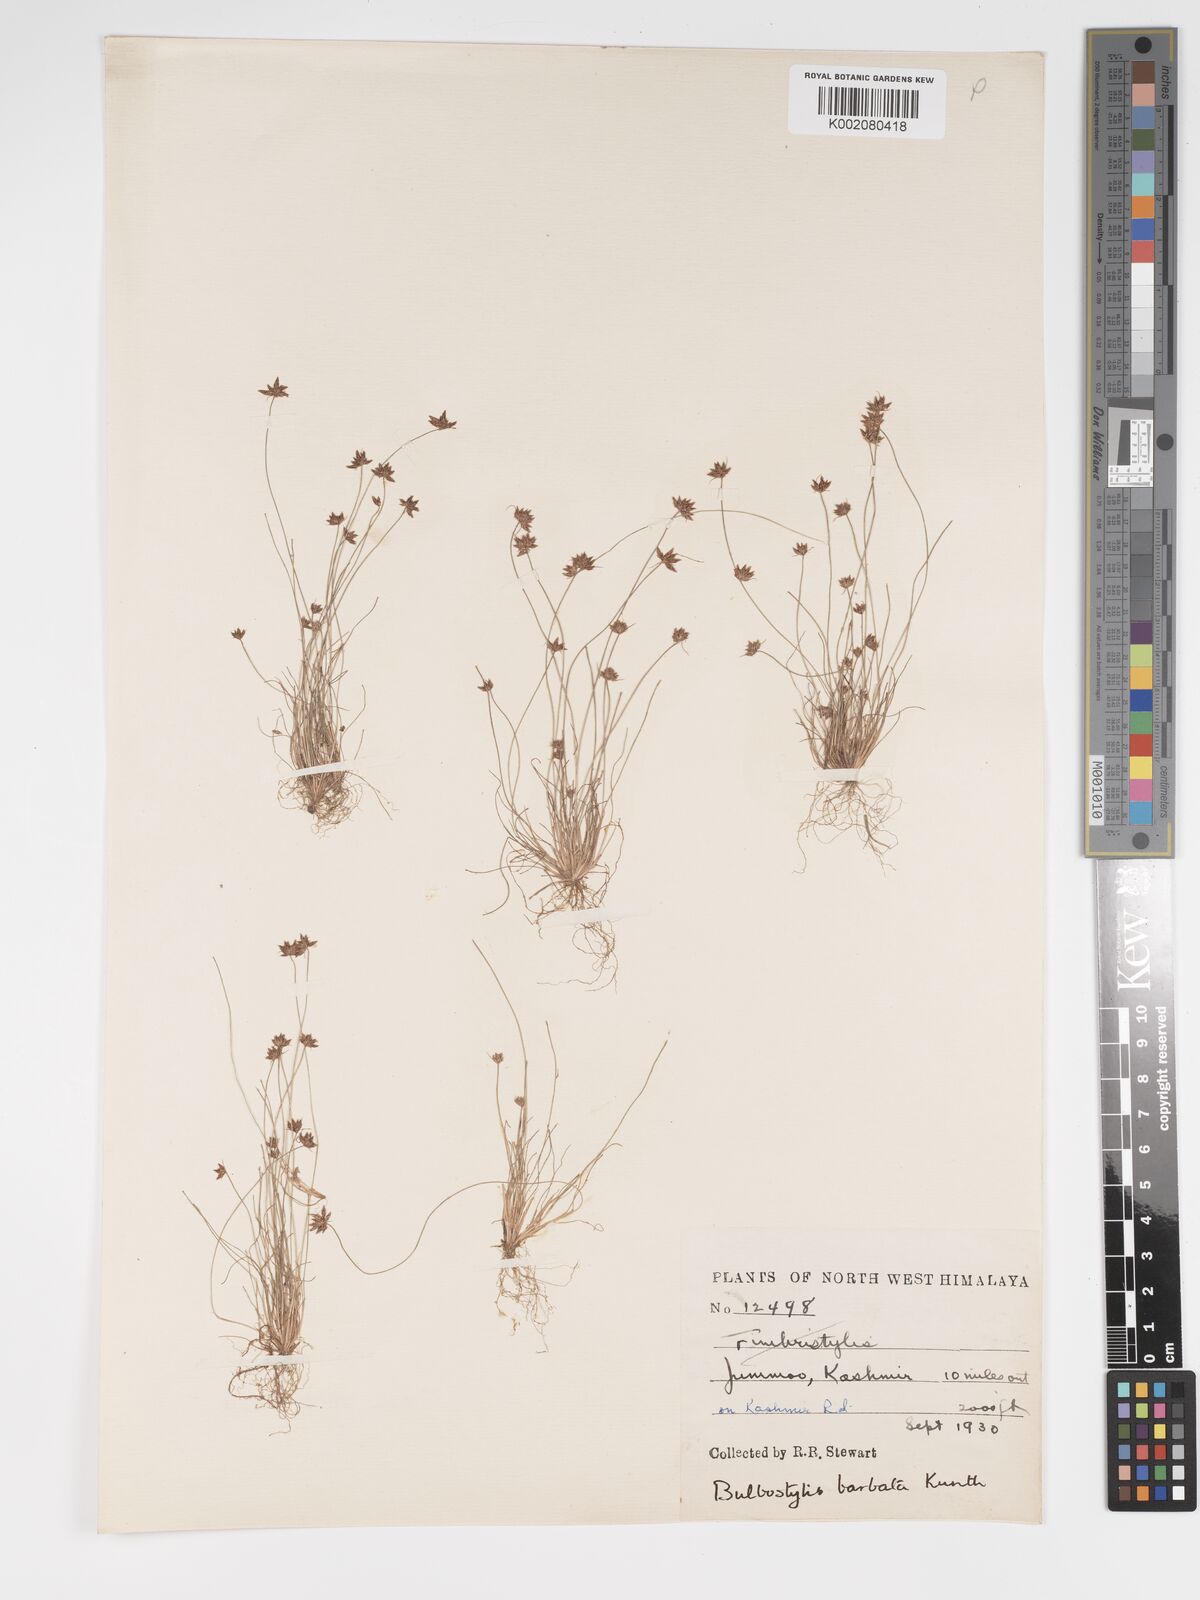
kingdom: Plantae
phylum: Tracheophyta
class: Liliopsida
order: Poales
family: Cyperaceae
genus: Bulbostylis
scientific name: Bulbostylis
